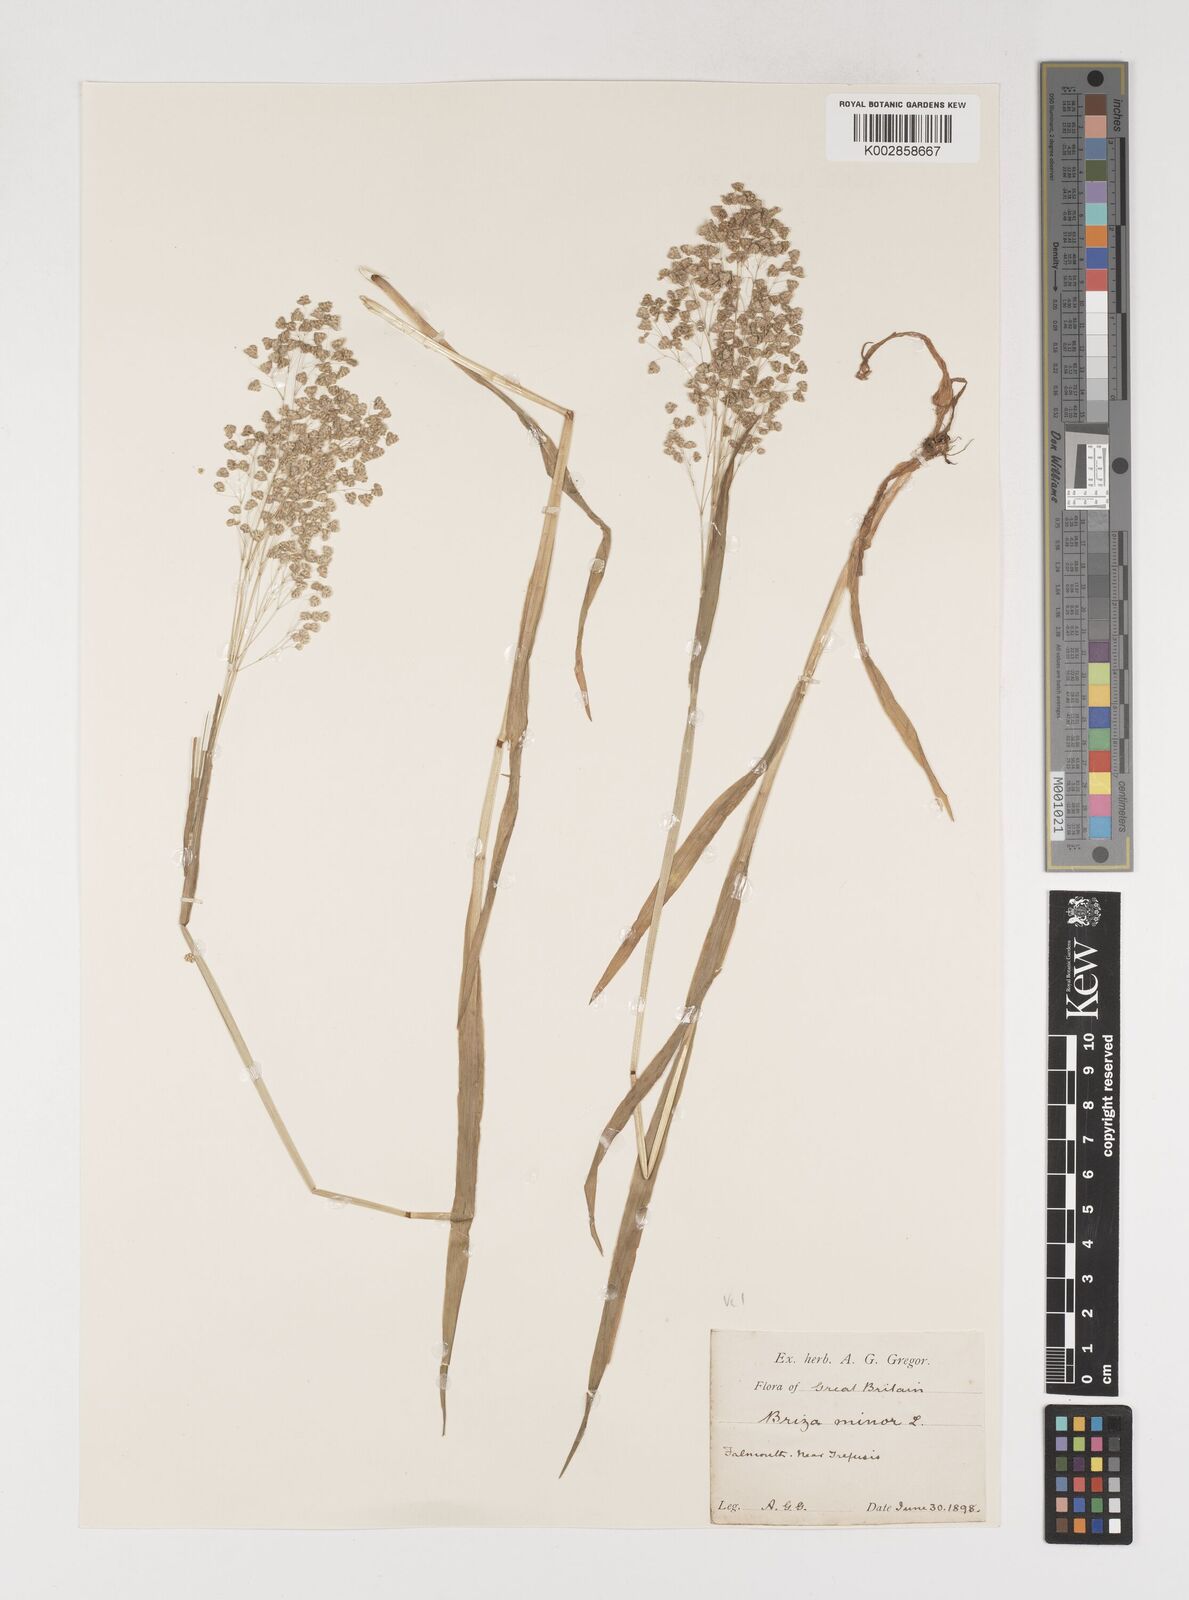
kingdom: Plantae
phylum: Tracheophyta
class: Liliopsida
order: Poales
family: Poaceae
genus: Briza
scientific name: Briza minor
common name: Lesser quaking-grass
